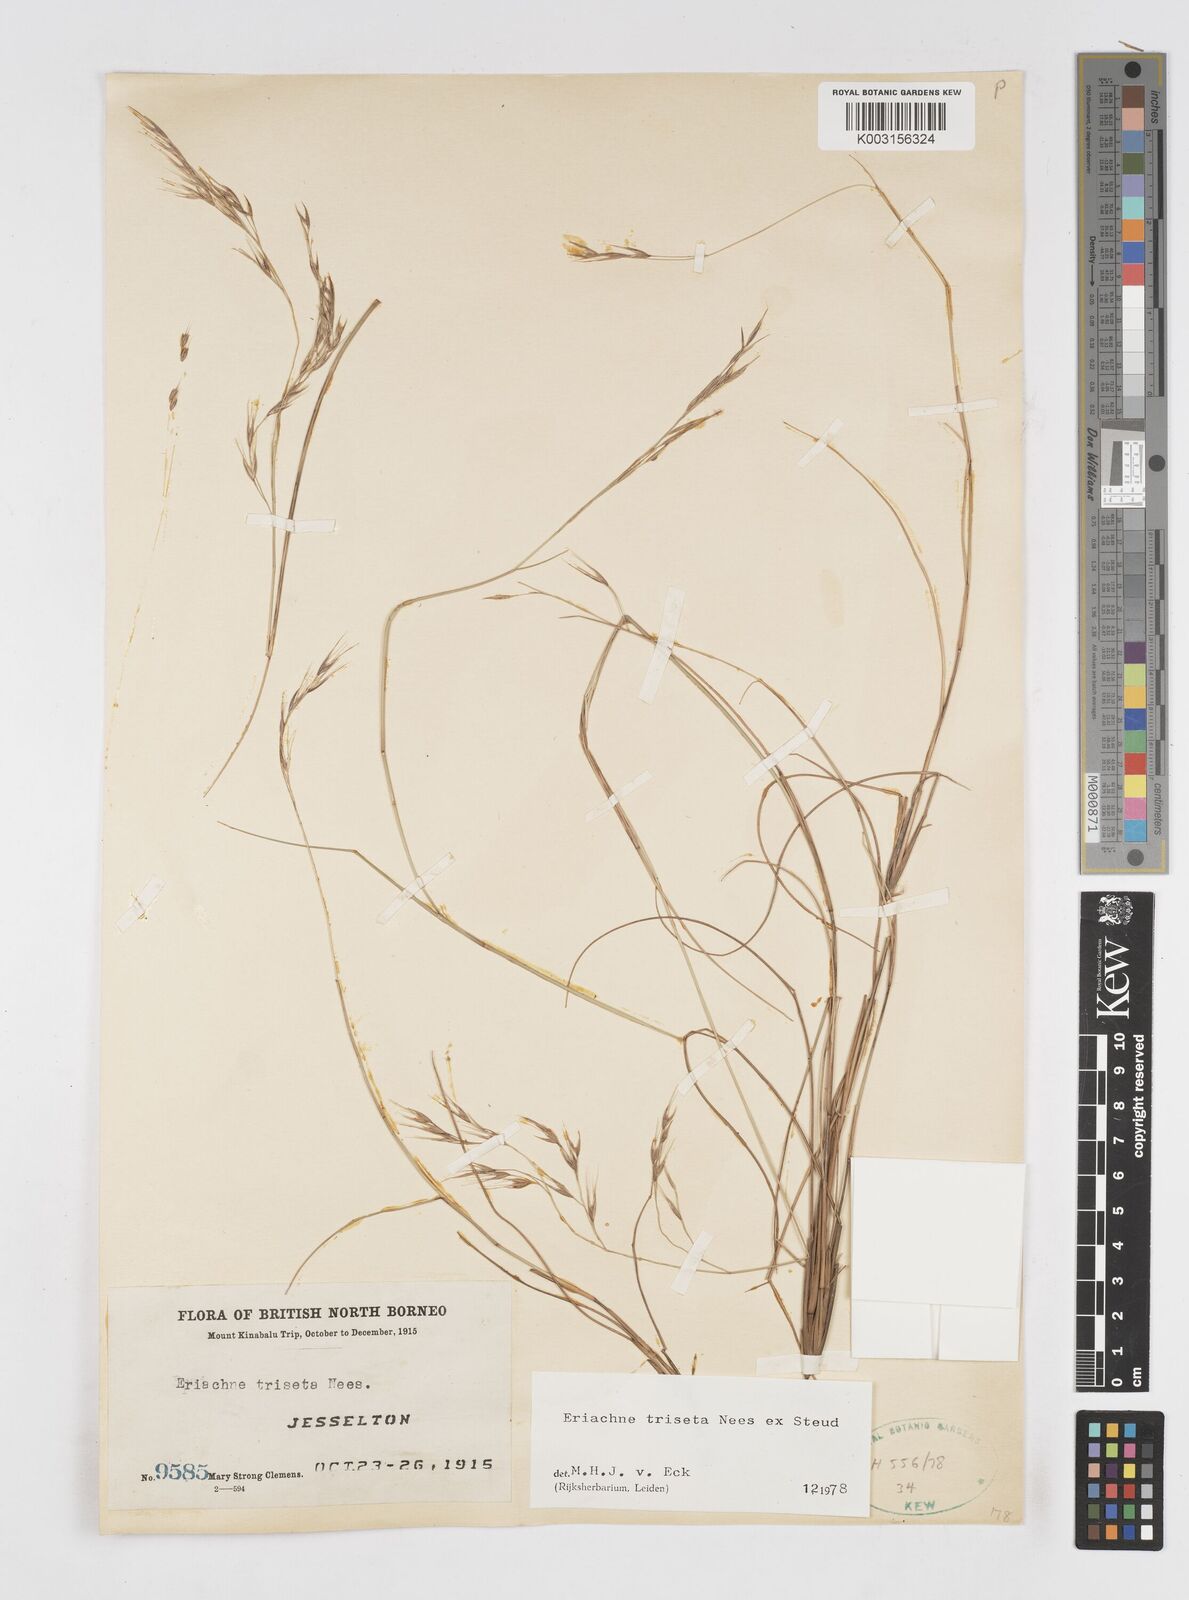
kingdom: Plantae
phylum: Tracheophyta
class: Liliopsida
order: Poales
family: Poaceae
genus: Eriachne
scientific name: Eriachne triseta
